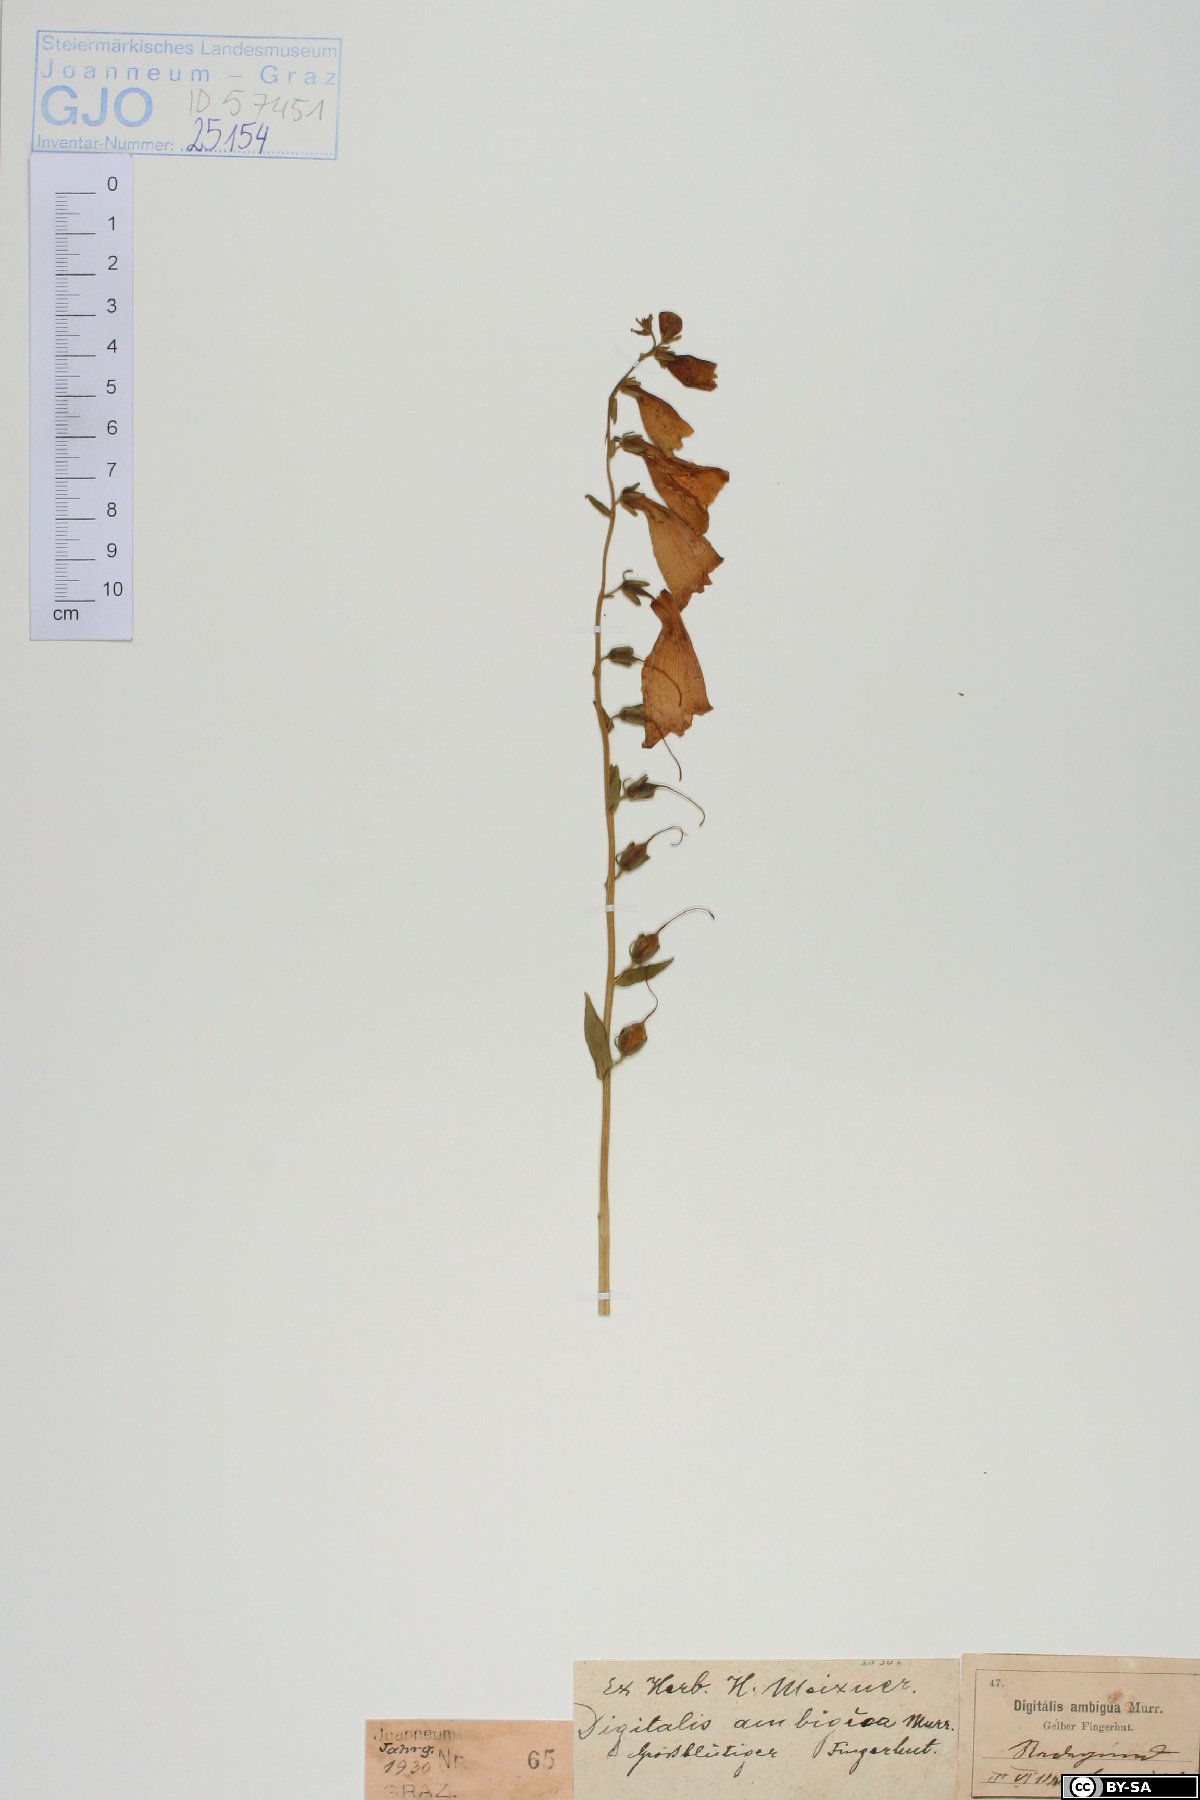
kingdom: Plantae
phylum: Tracheophyta
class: Magnoliopsida
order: Lamiales
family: Plantaginaceae
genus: Digitalis
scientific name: Digitalis grandiflora
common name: Yellow foxglove
